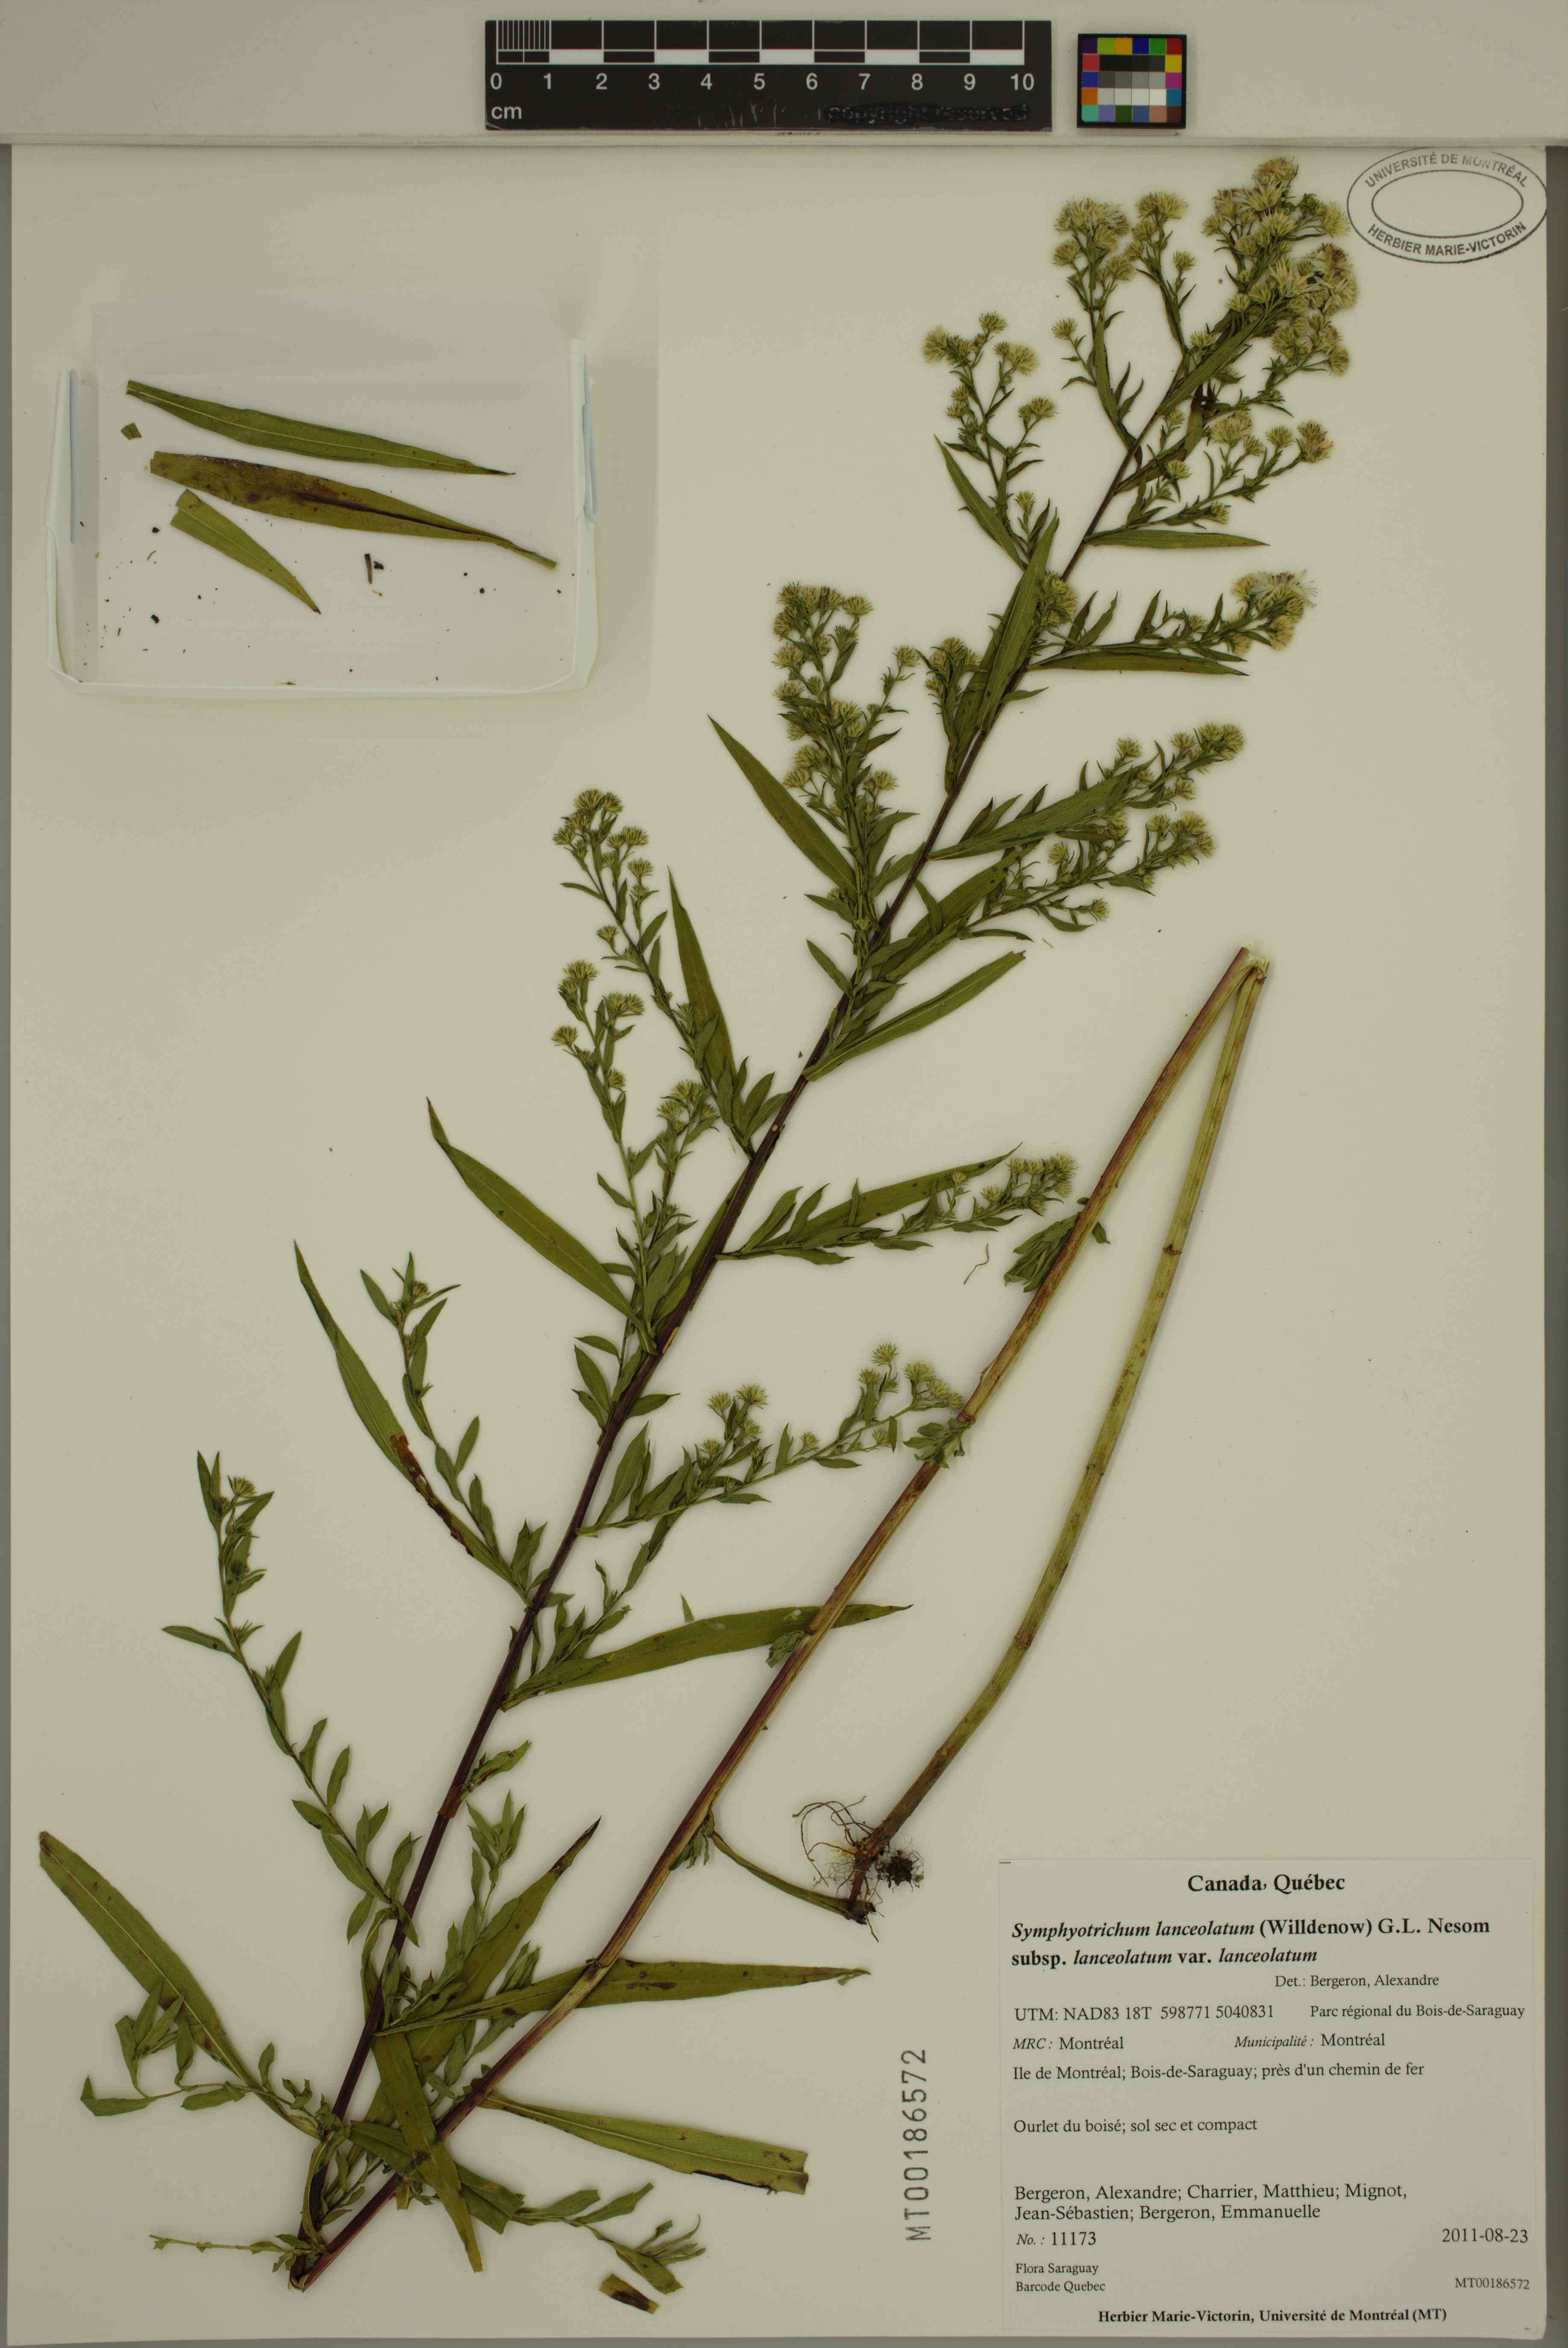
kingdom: Plantae
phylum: Tracheophyta
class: Magnoliopsida
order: Asterales
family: Asteraceae
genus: Symphyotrichum
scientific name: Symphyotrichum lanceolatum
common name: Panicled aster
